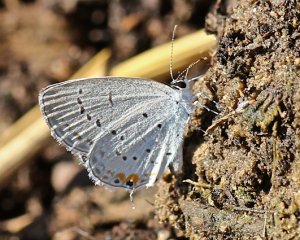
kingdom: Animalia
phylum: Arthropoda
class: Insecta
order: Lepidoptera
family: Lycaenidae
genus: Elkalyce
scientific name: Elkalyce comyntas
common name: Eastern Tailed-Blue
